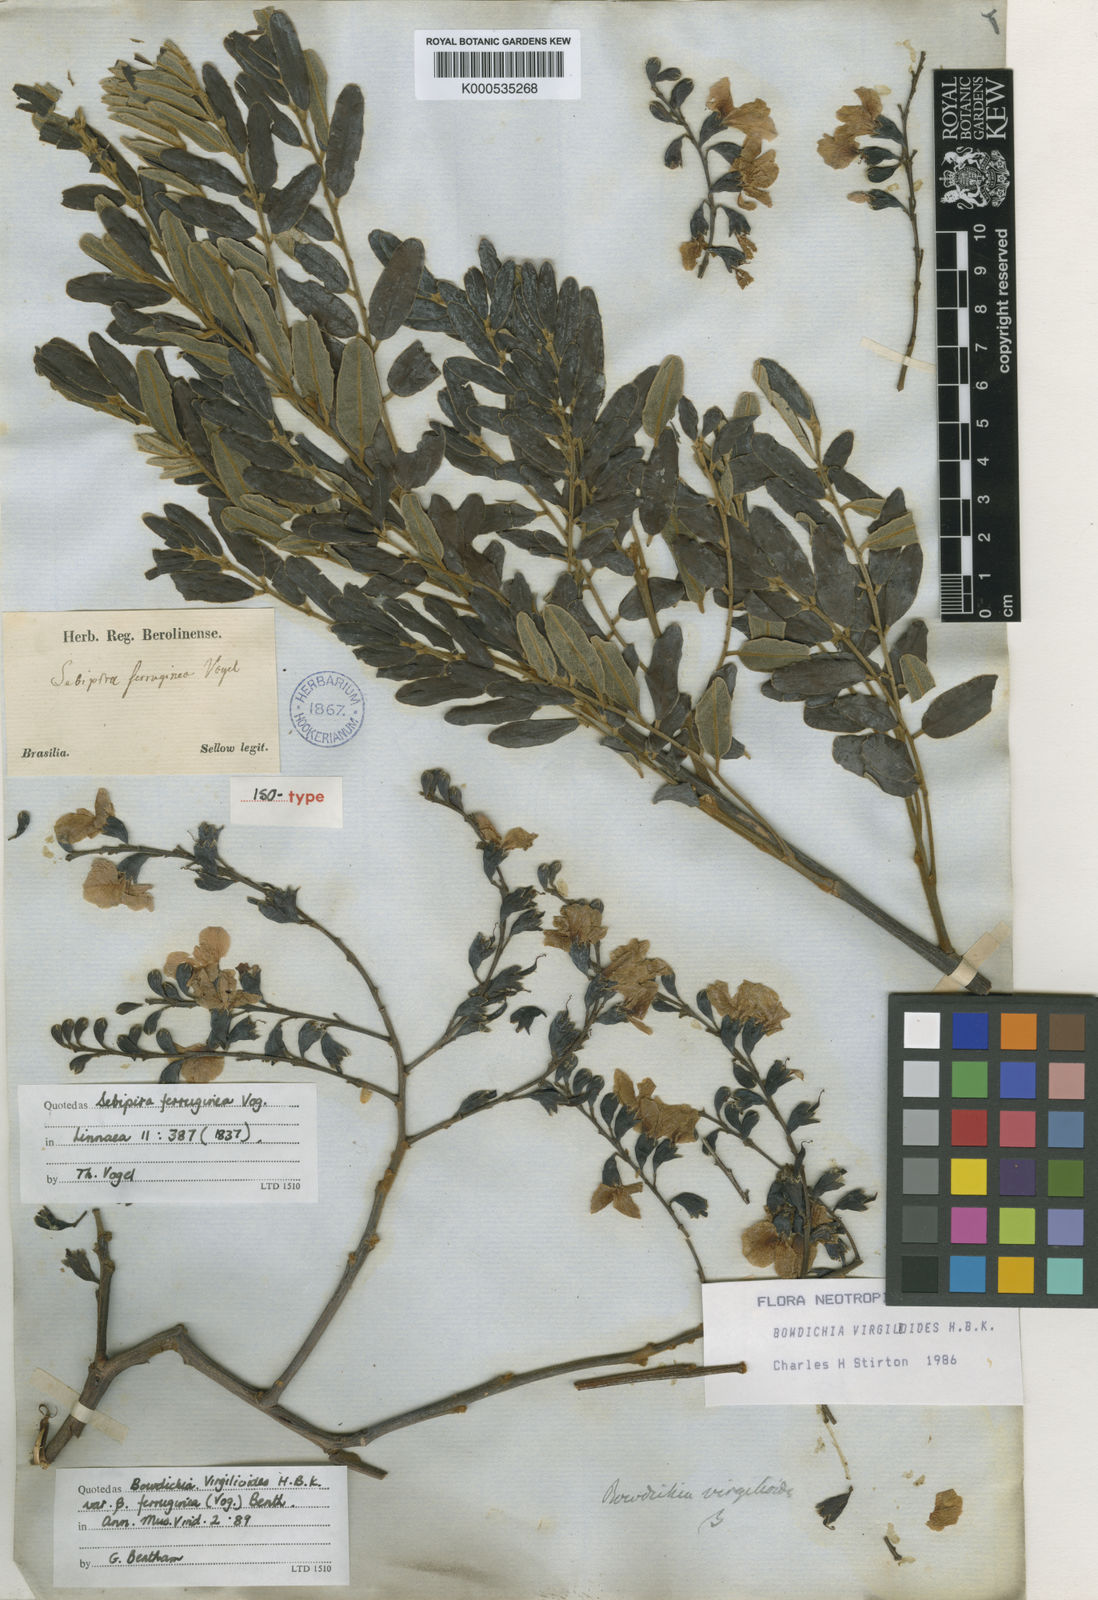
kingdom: Plantae
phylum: Tracheophyta
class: Magnoliopsida
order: Fabales
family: Fabaceae
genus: Bowdichia
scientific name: Bowdichia virgilioides
